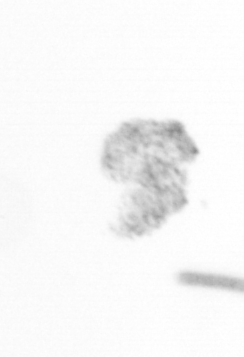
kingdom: Chromista
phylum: Ochrophyta
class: Bacillariophyceae
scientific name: Bacillariophyceae
